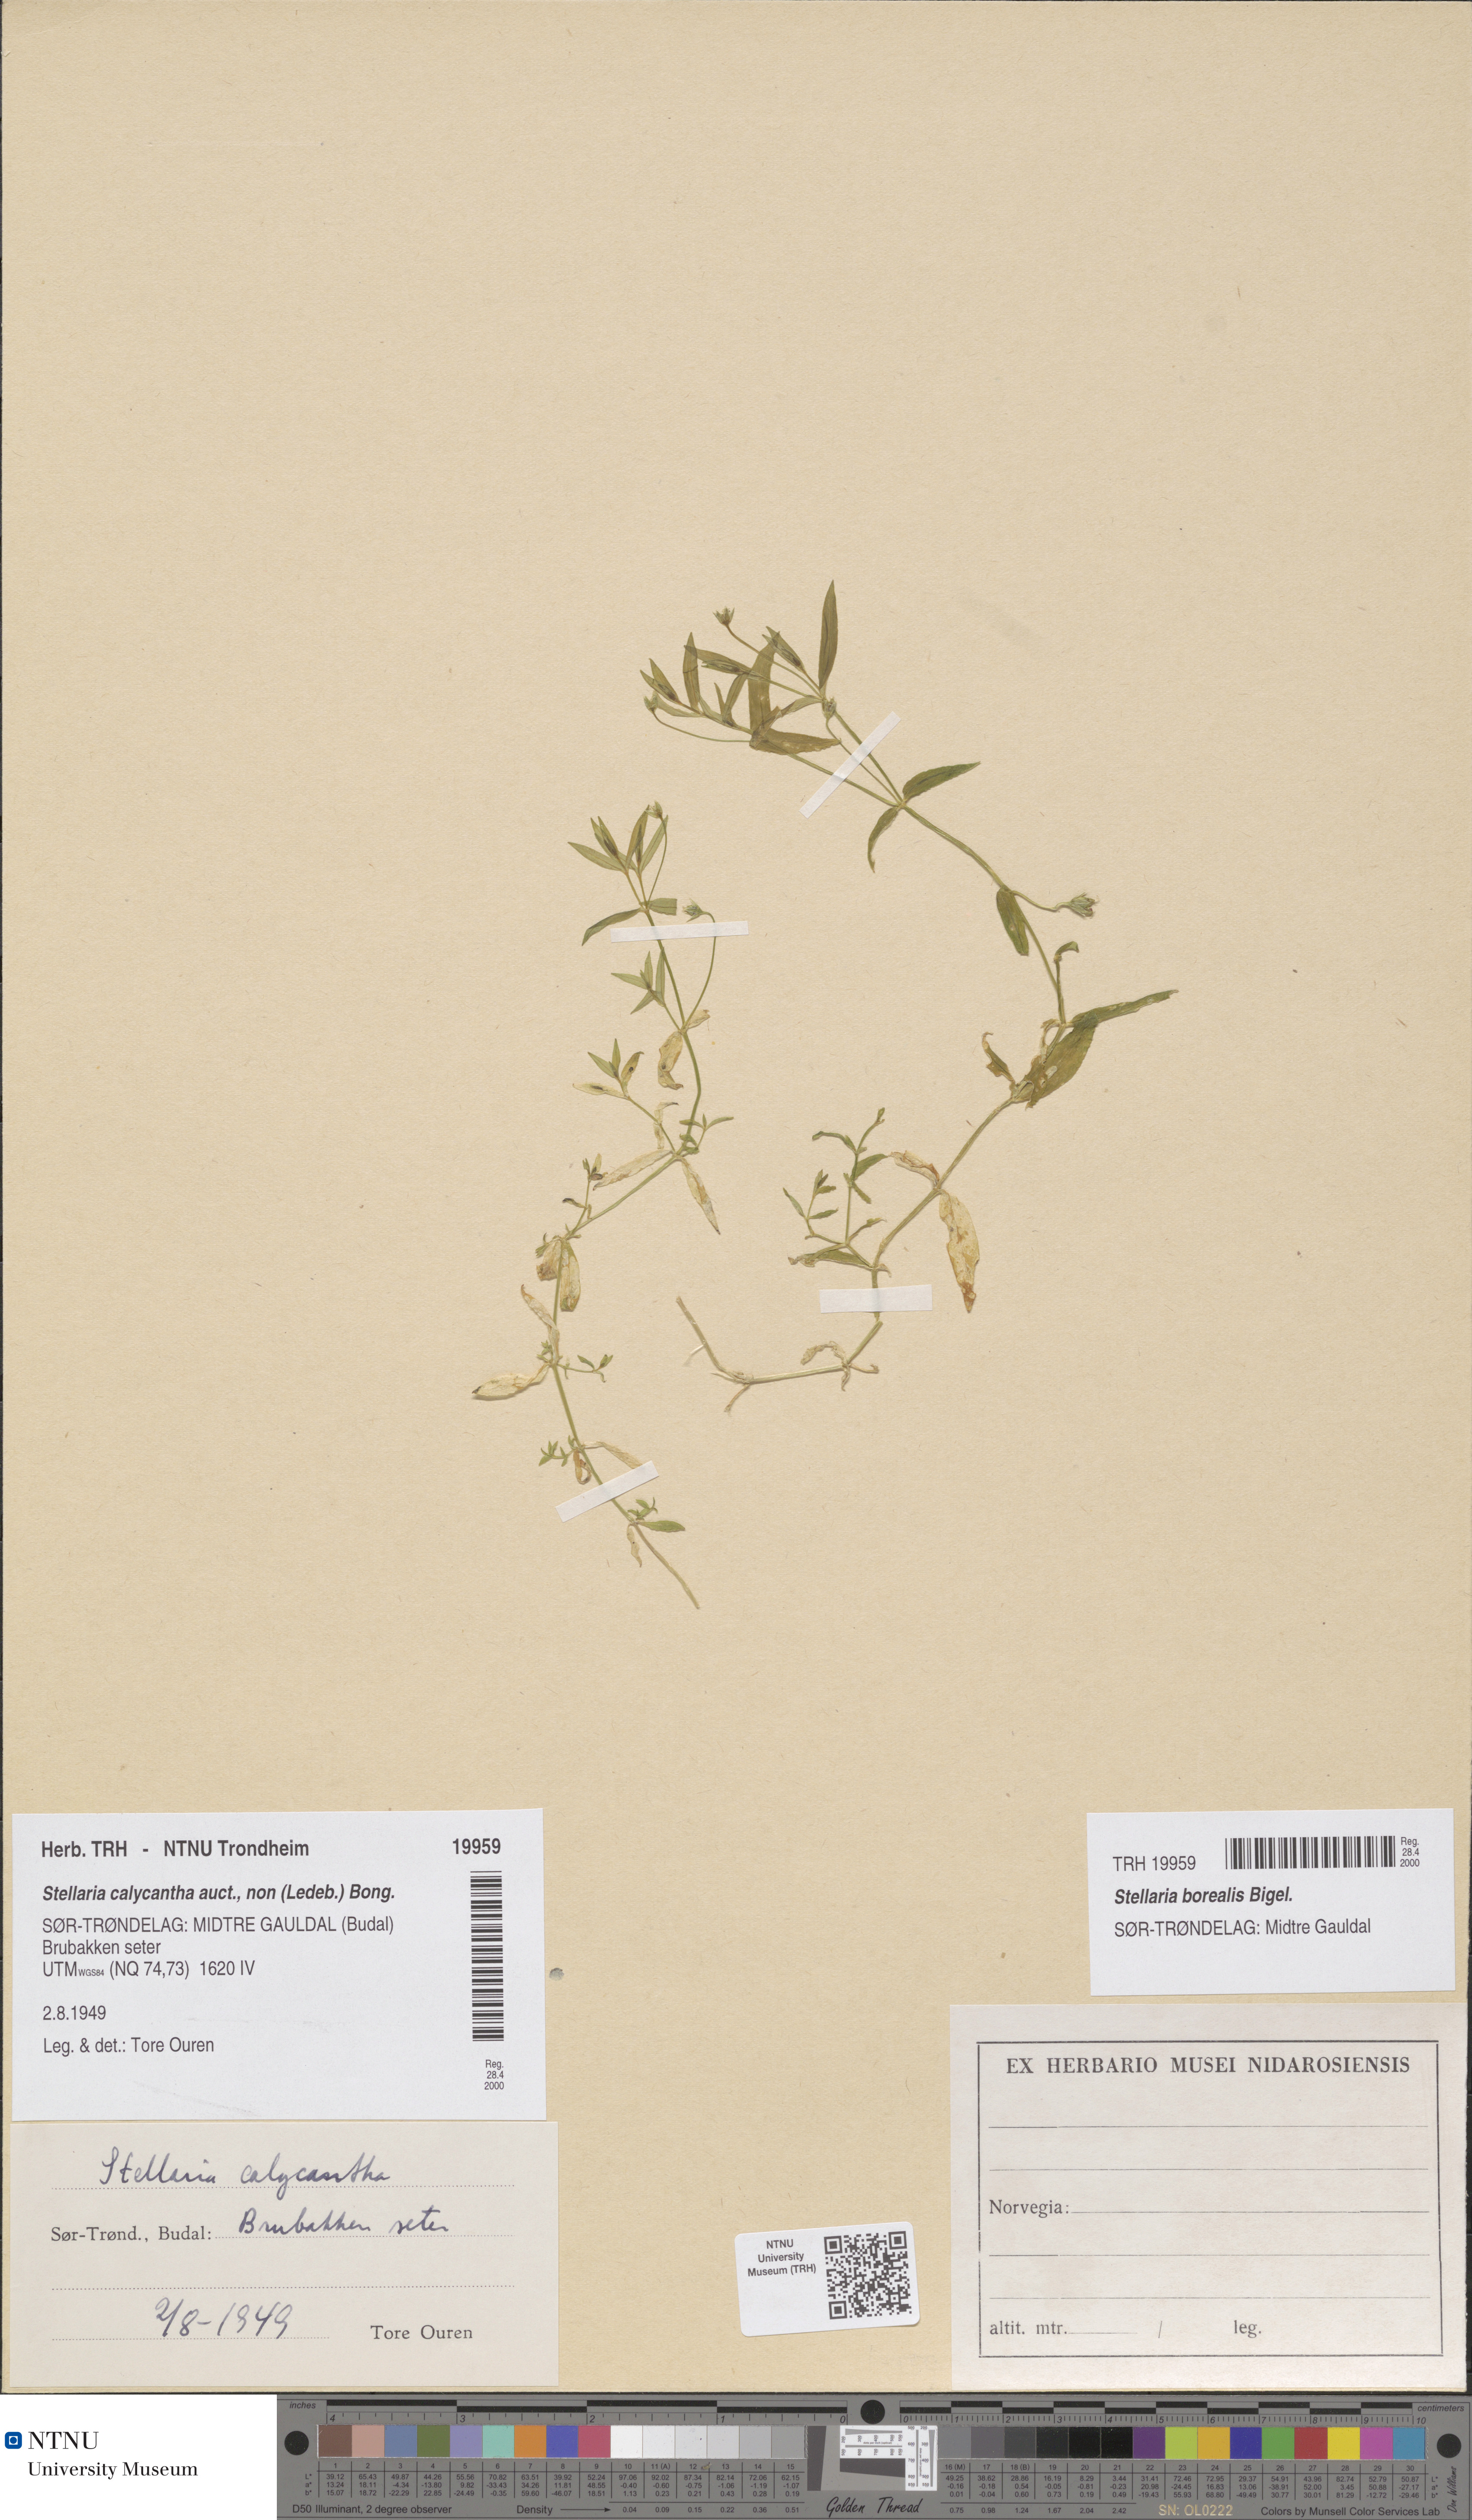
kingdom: Plantae
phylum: Tracheophyta
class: Magnoliopsida
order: Caryophyllales
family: Caryophyllaceae
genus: Stellaria
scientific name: Stellaria borealis
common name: Boreal starwort
